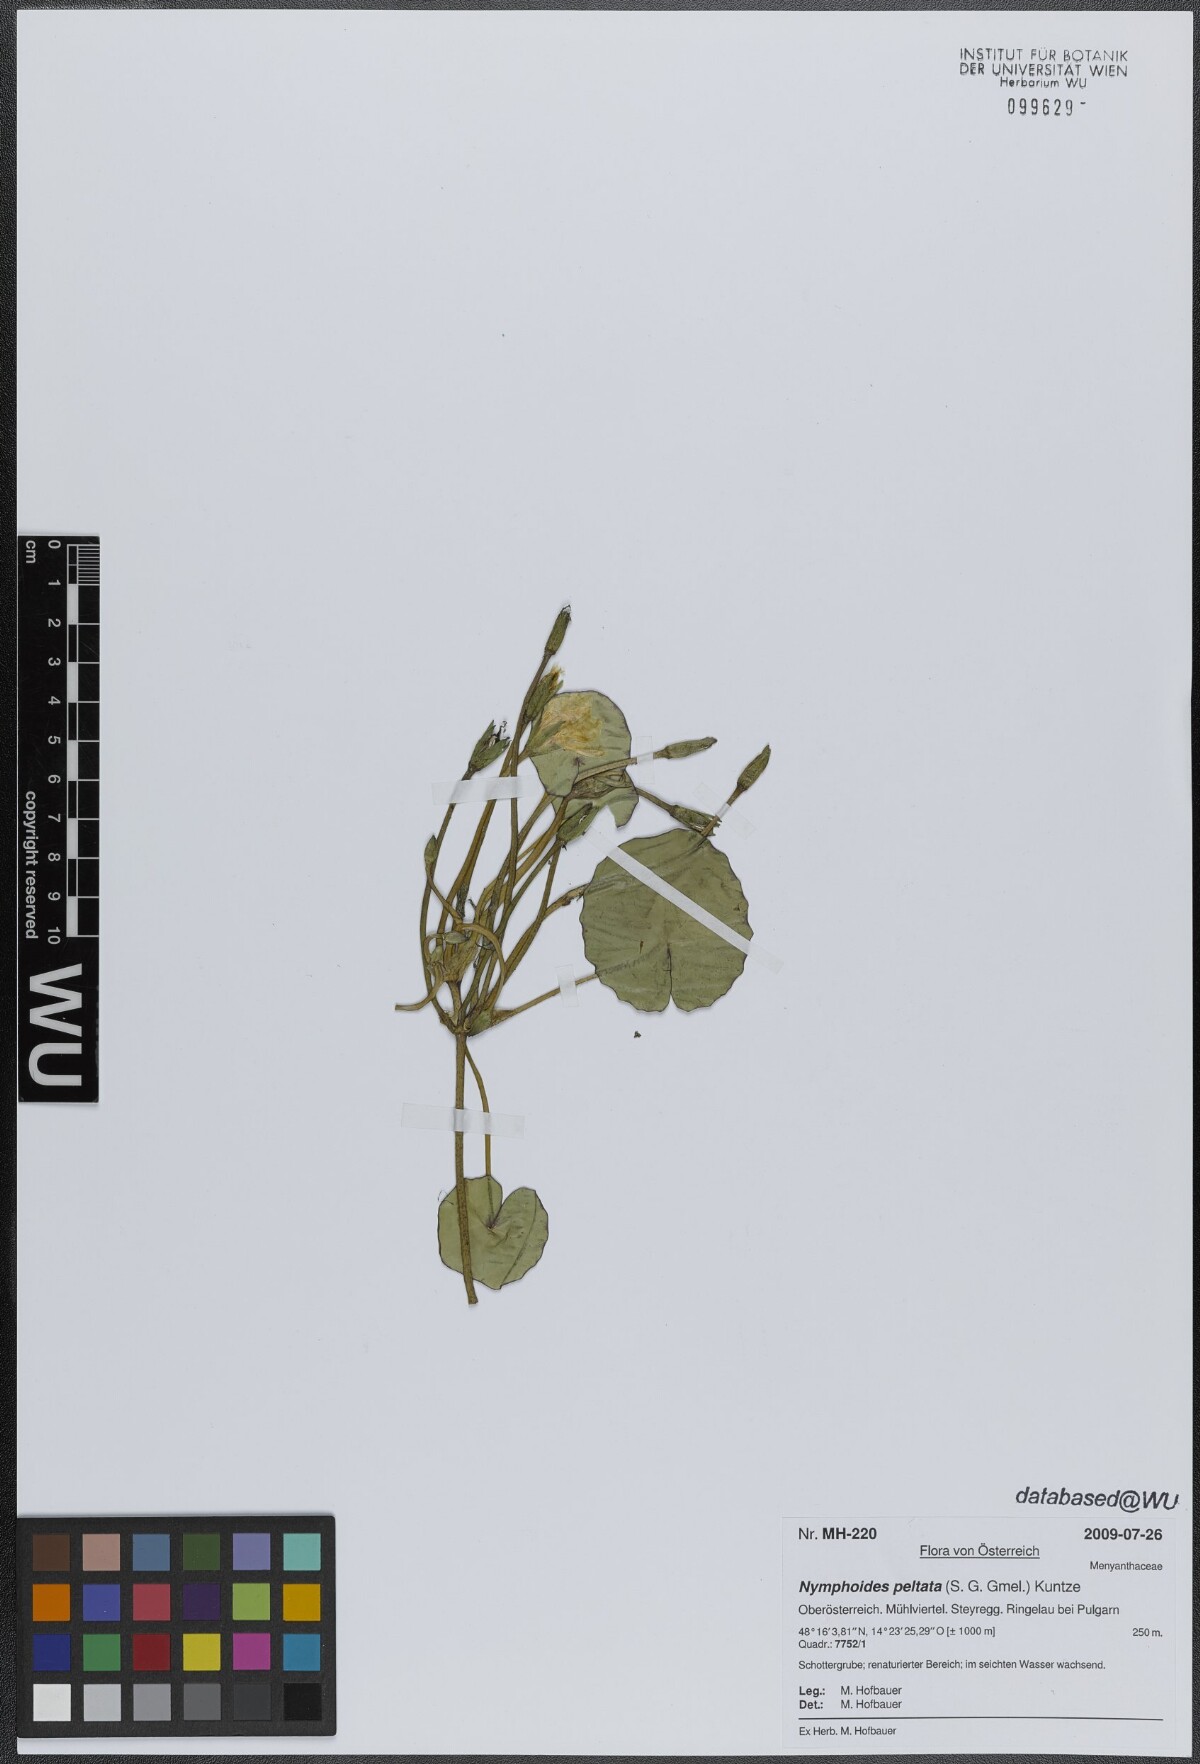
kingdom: Plantae
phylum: Tracheophyta
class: Magnoliopsida
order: Asterales
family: Menyanthaceae
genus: Nymphoides
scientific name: Nymphoides peltata
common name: Fringed water-lily
